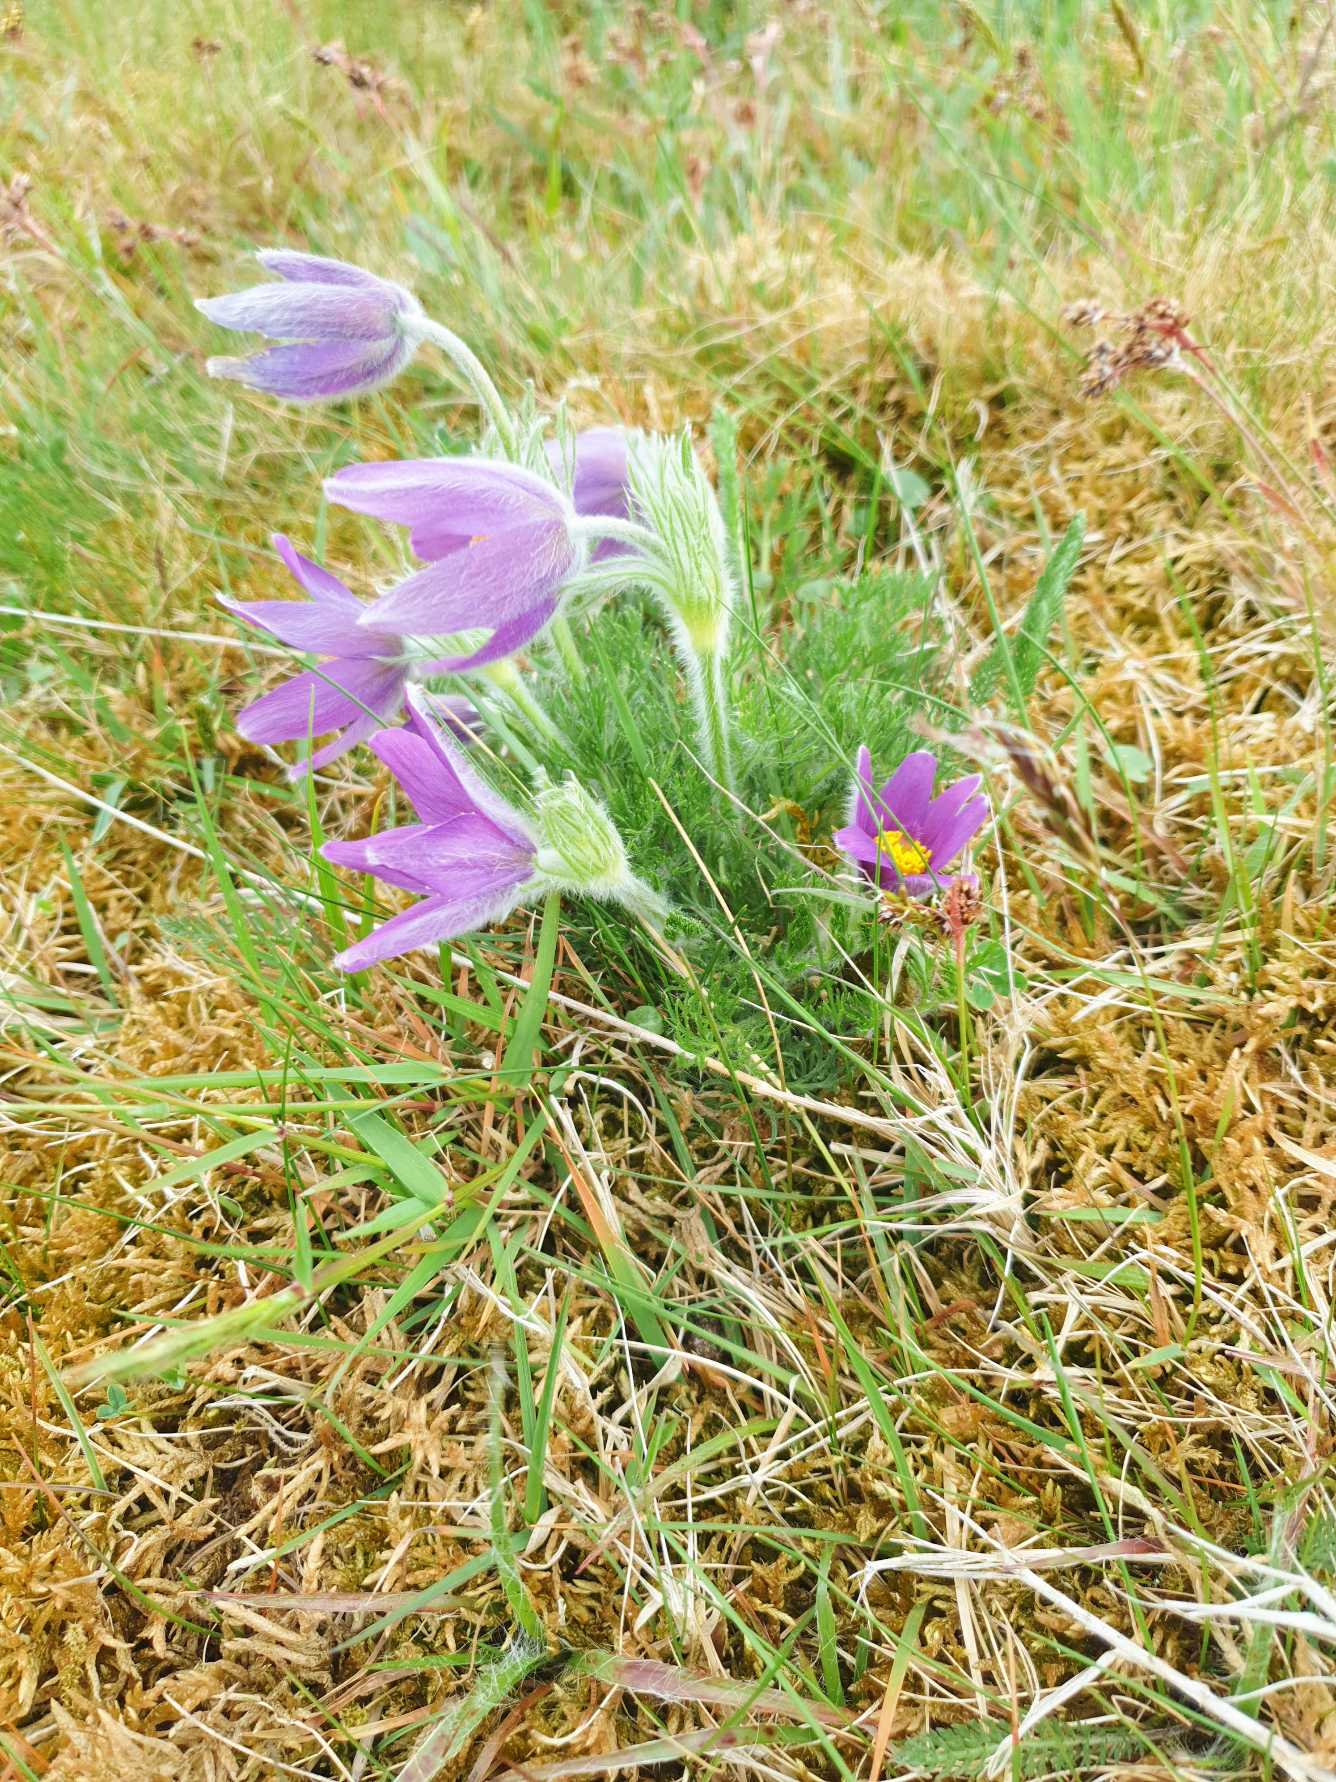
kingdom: Plantae
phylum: Tracheophyta
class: Magnoliopsida
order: Ranunculales
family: Ranunculaceae
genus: Pulsatilla
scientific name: Pulsatilla vulgaris
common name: Opret kobjælde
